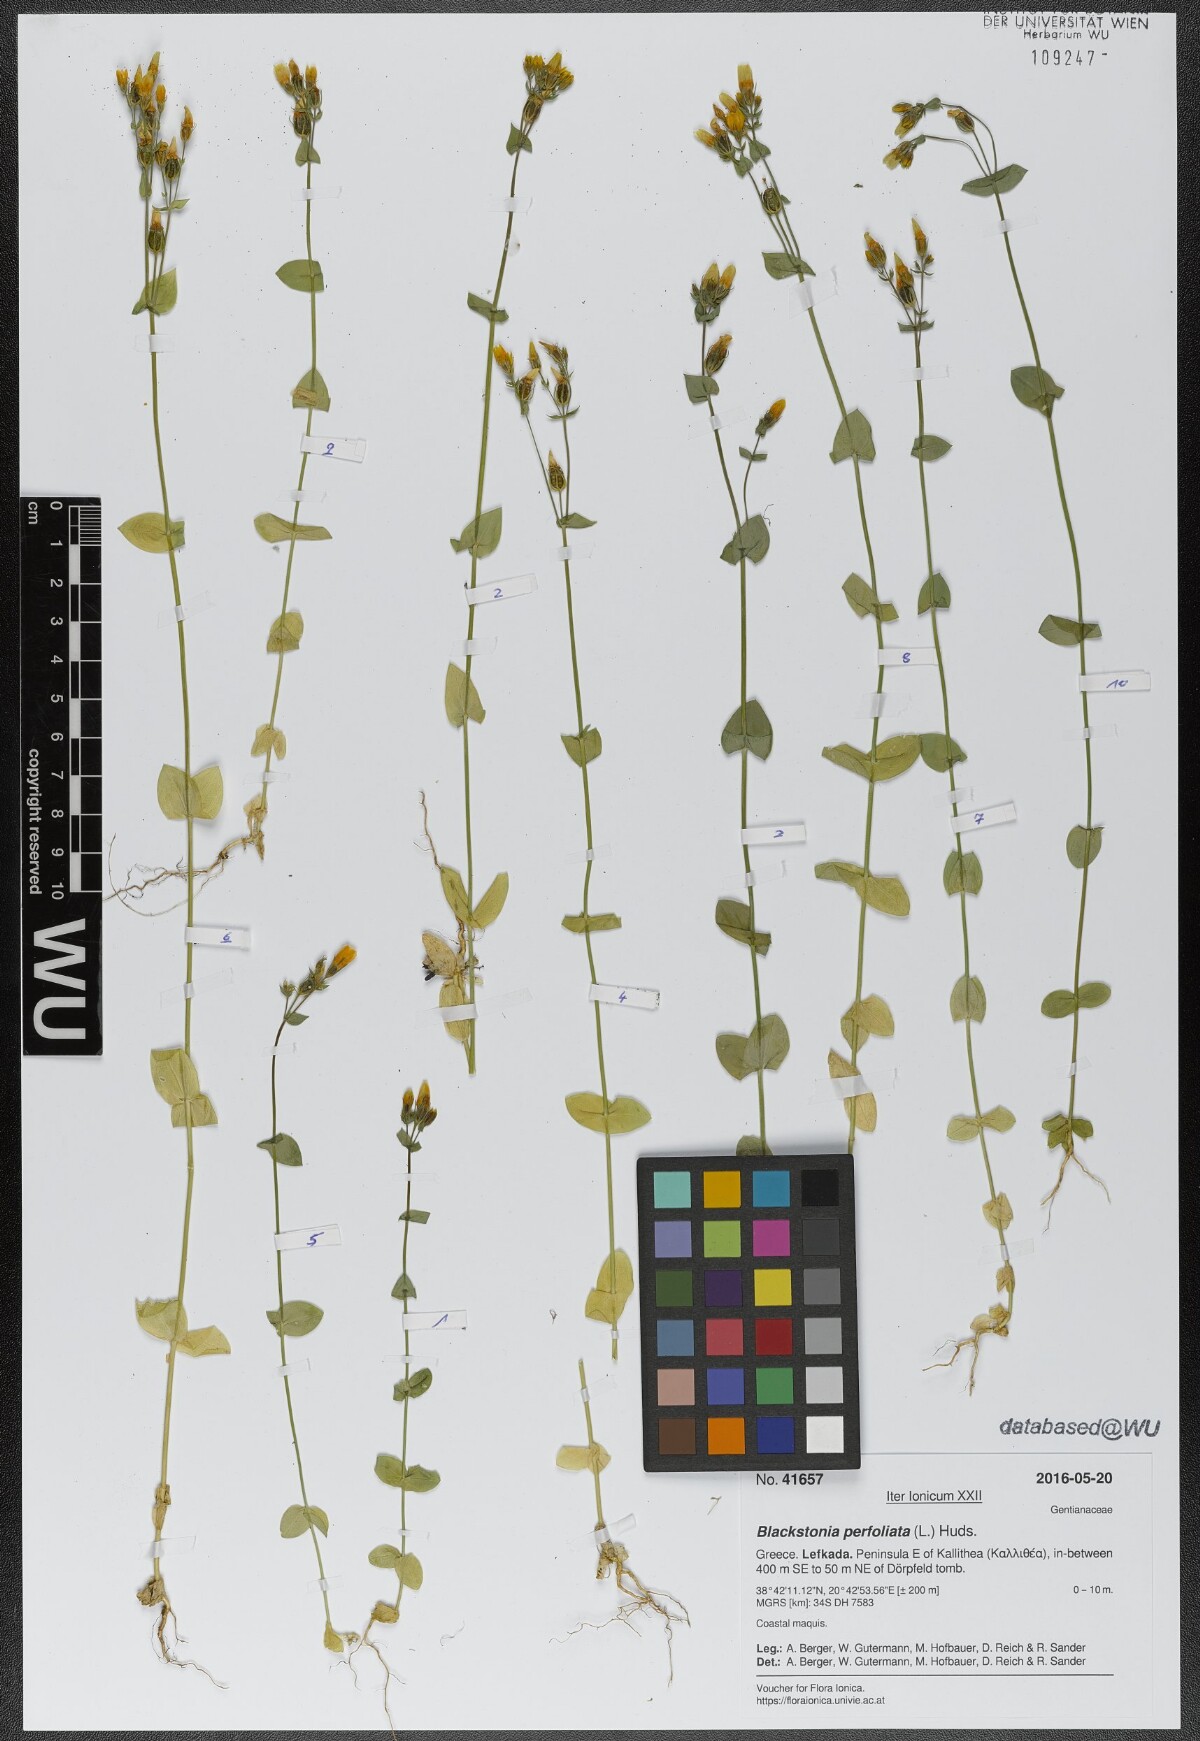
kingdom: Plantae
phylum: Tracheophyta
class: Magnoliopsida
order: Gentianales
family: Gentianaceae
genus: Blackstonia
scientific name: Blackstonia perfoliata
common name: Yellow-wort
